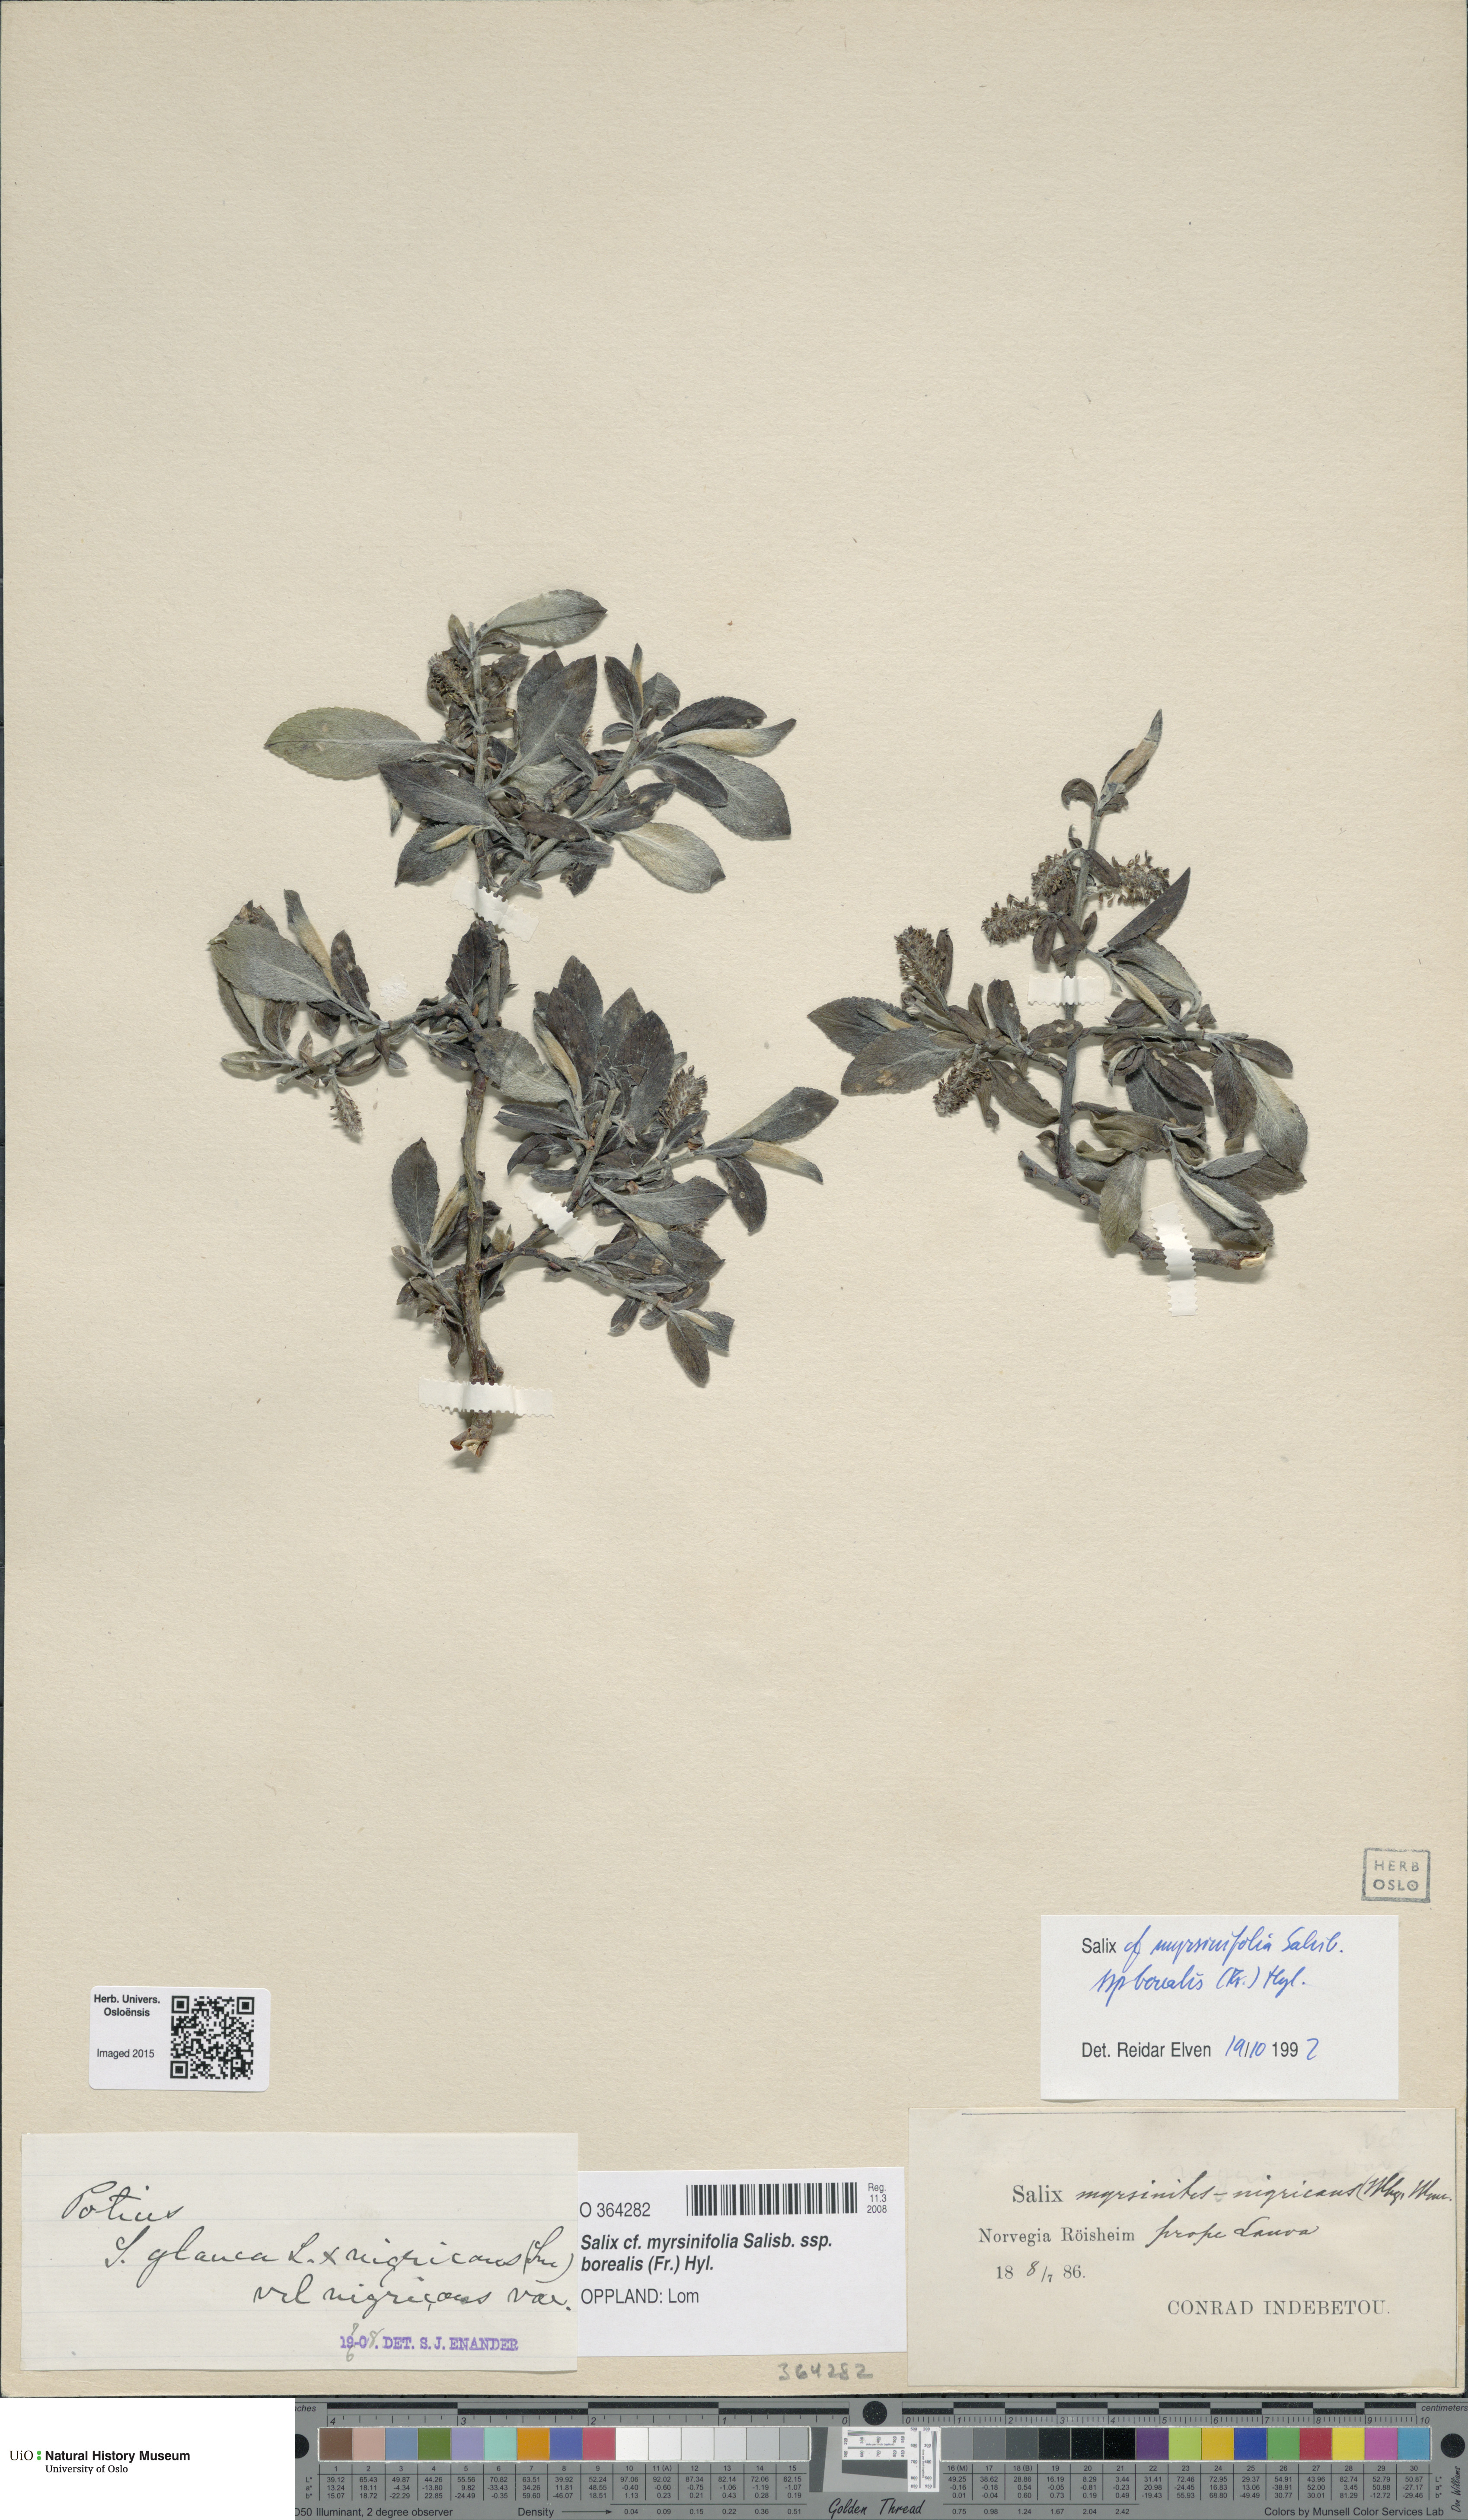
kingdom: Plantae
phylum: Tracheophyta
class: Magnoliopsida
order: Malpighiales
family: Salicaceae
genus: Salix
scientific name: Salix myrsinifolia
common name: Dark-leaved willow
